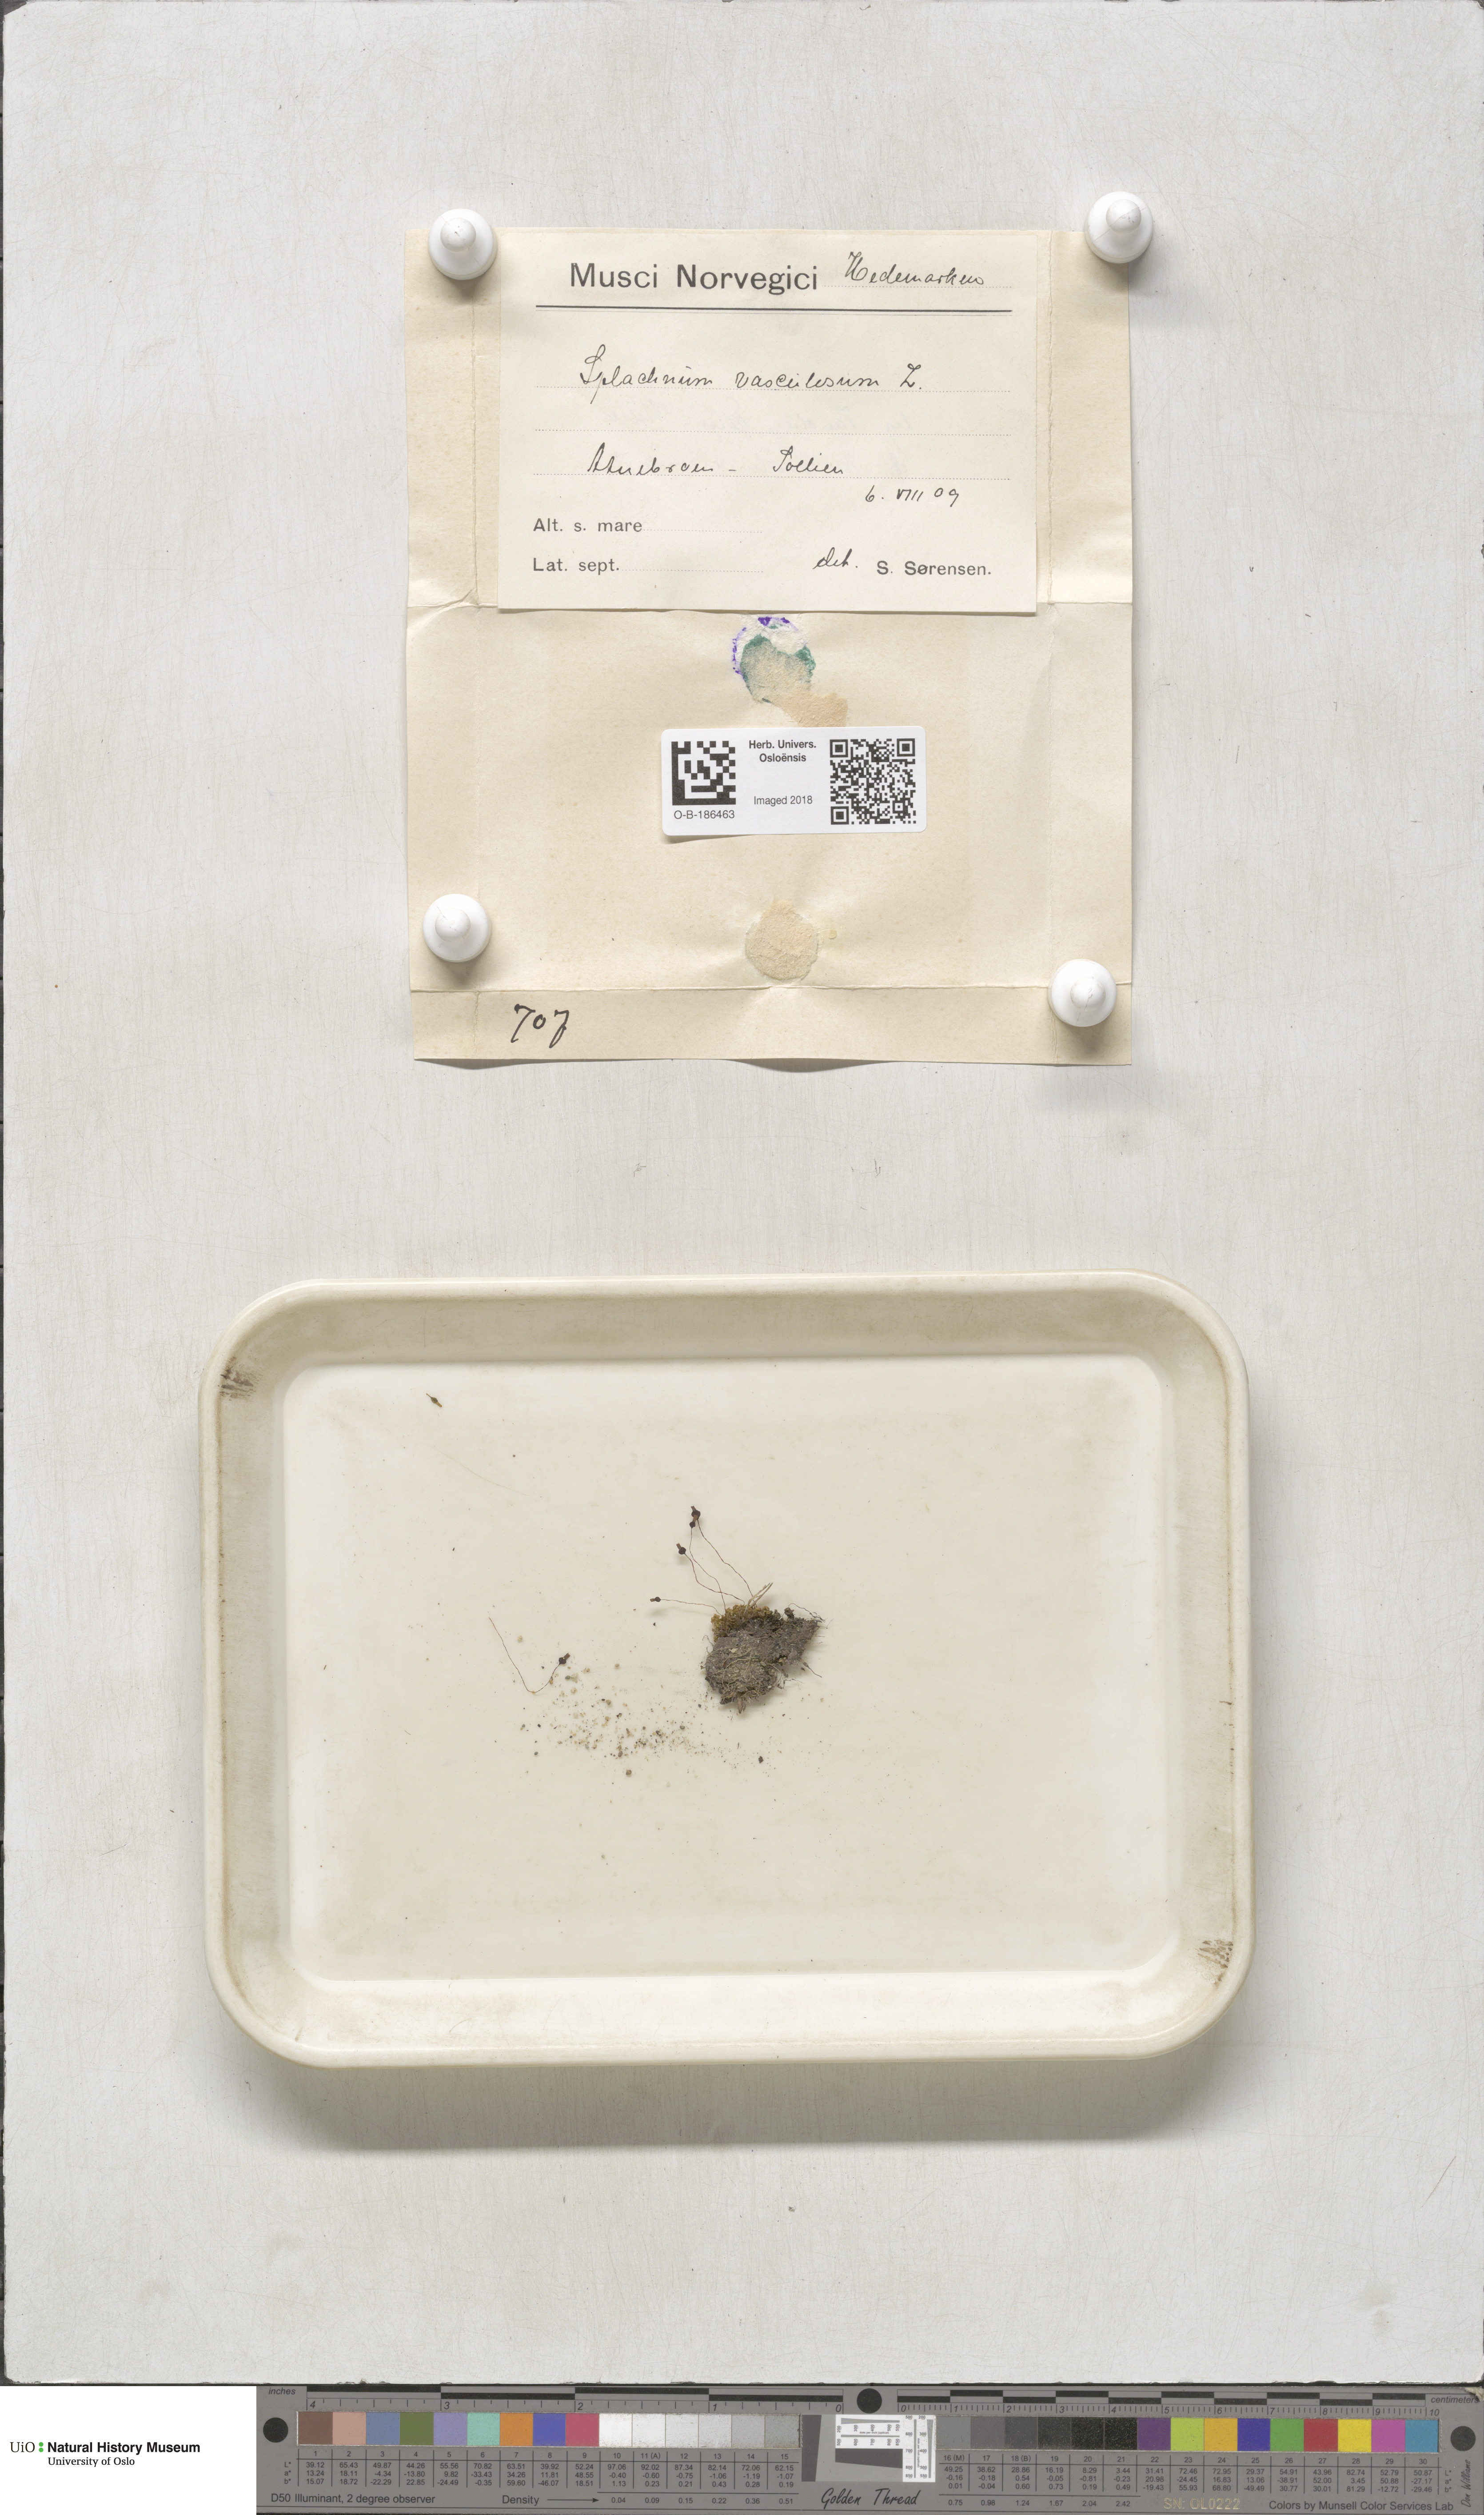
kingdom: Plantae
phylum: Bryophyta
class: Bryopsida
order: Splachnales
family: Splachnaceae
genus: Splachnum
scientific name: Splachnum vasculosum
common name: Rugged dung moss
